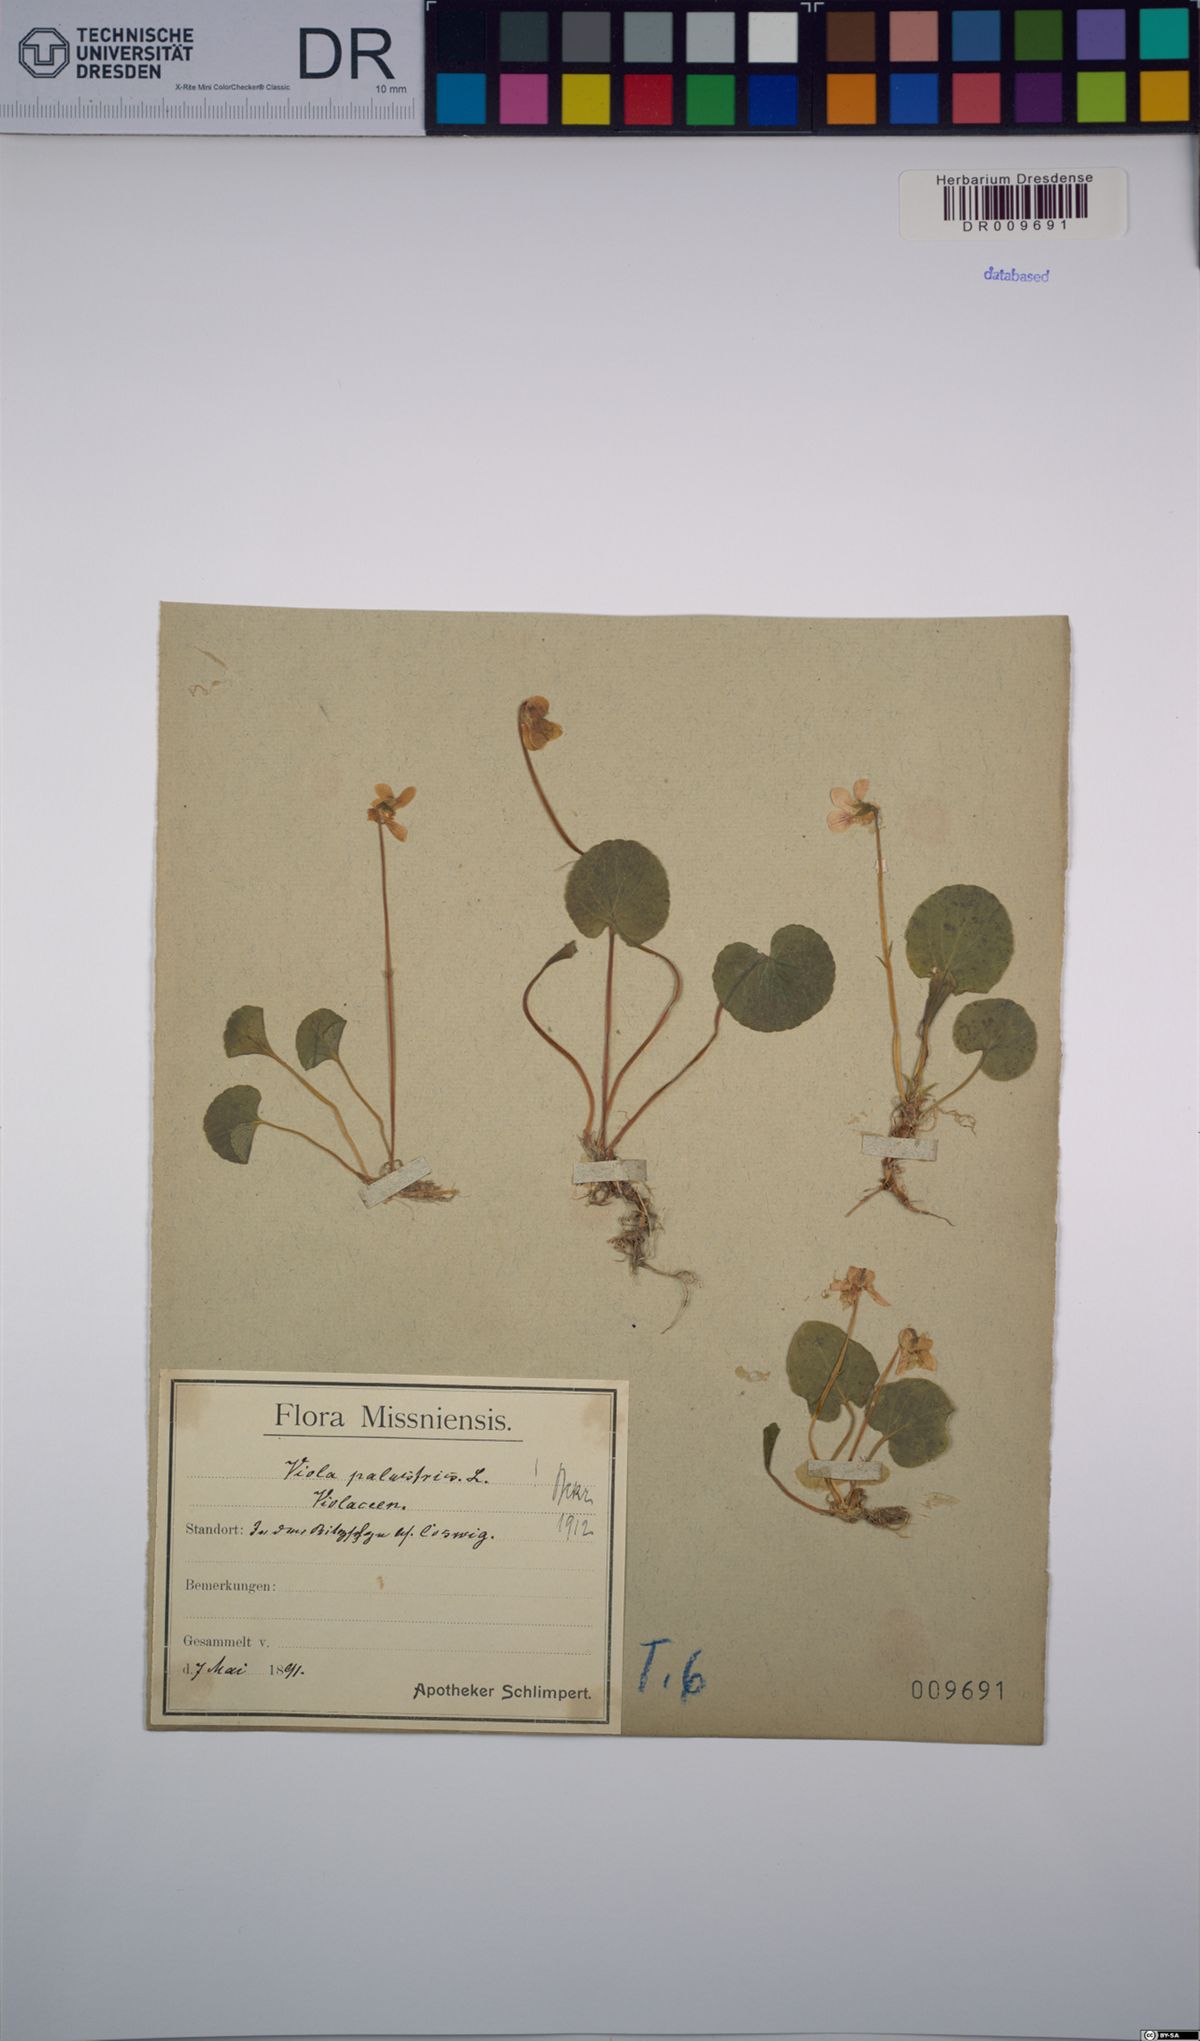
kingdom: Plantae
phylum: Tracheophyta
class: Magnoliopsida
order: Malpighiales
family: Violaceae
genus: Viola
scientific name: Viola palustris
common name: Marsh violet
